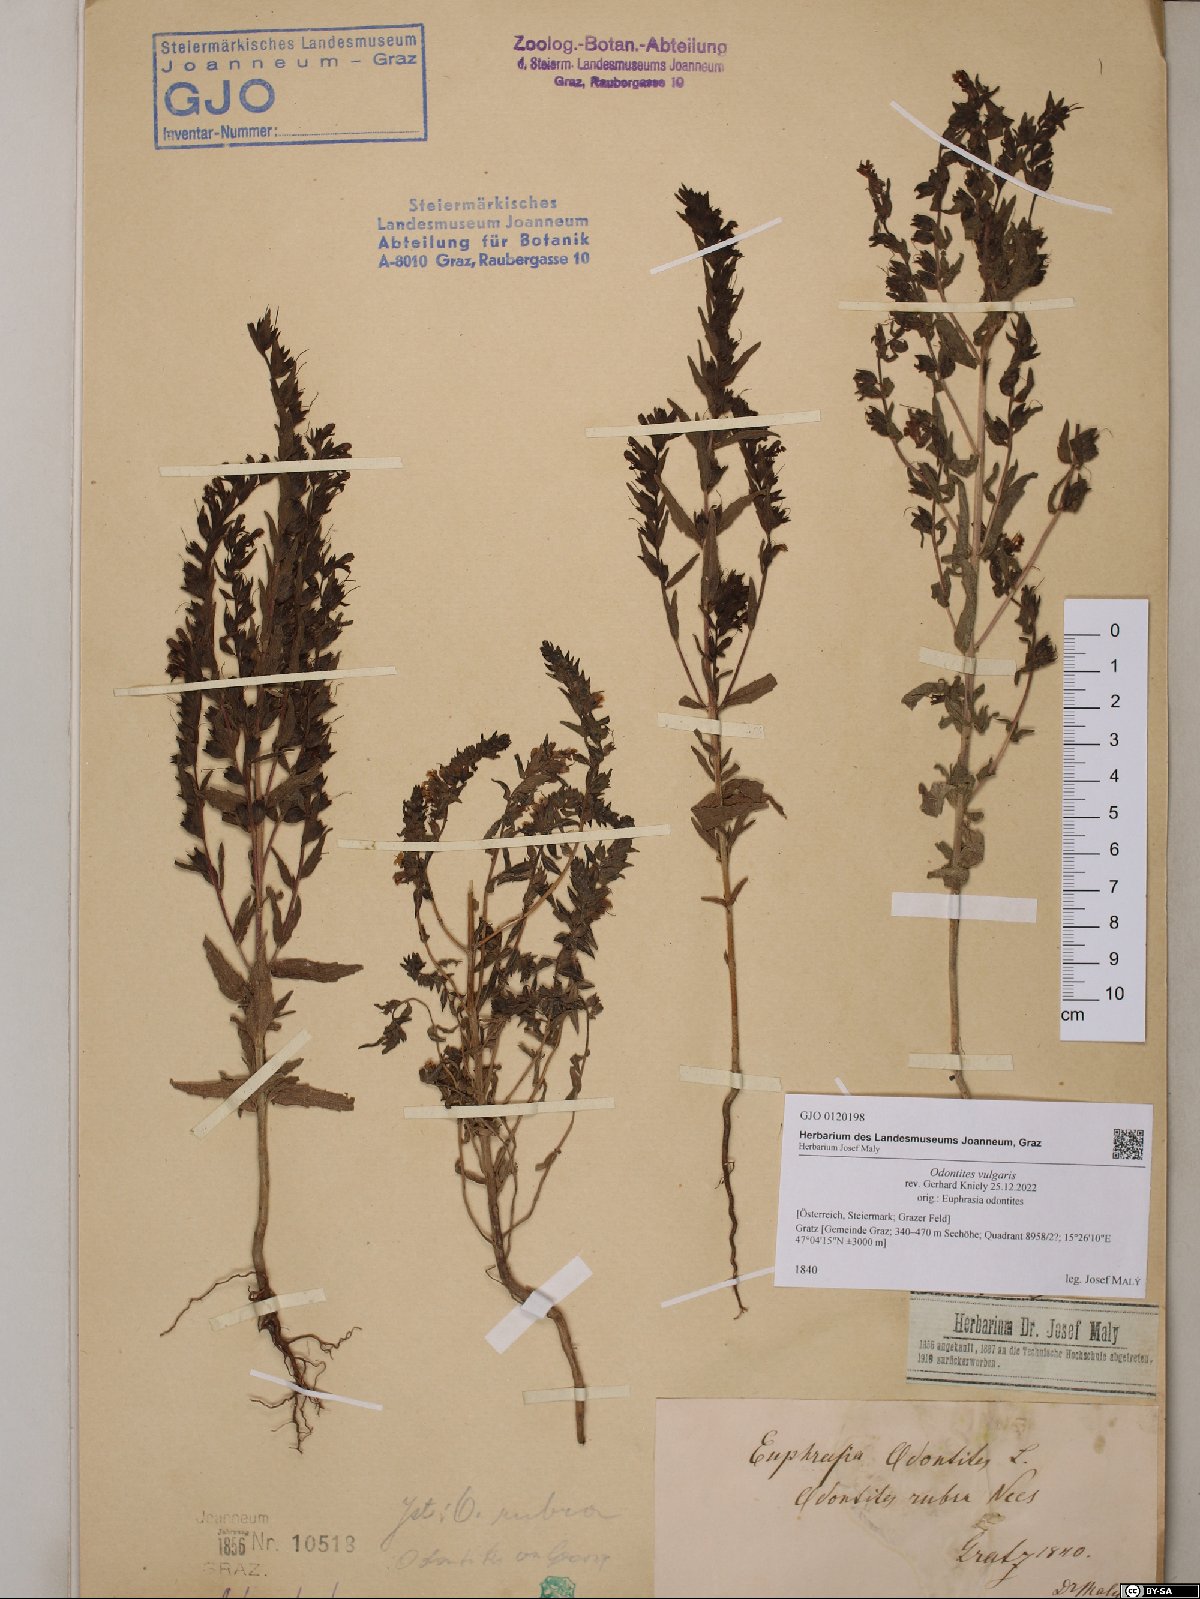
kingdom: Plantae
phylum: Tracheophyta
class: Magnoliopsida
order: Lamiales
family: Orobanchaceae
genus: Odontites
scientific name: Odontites vulgaris
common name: Broomrape
